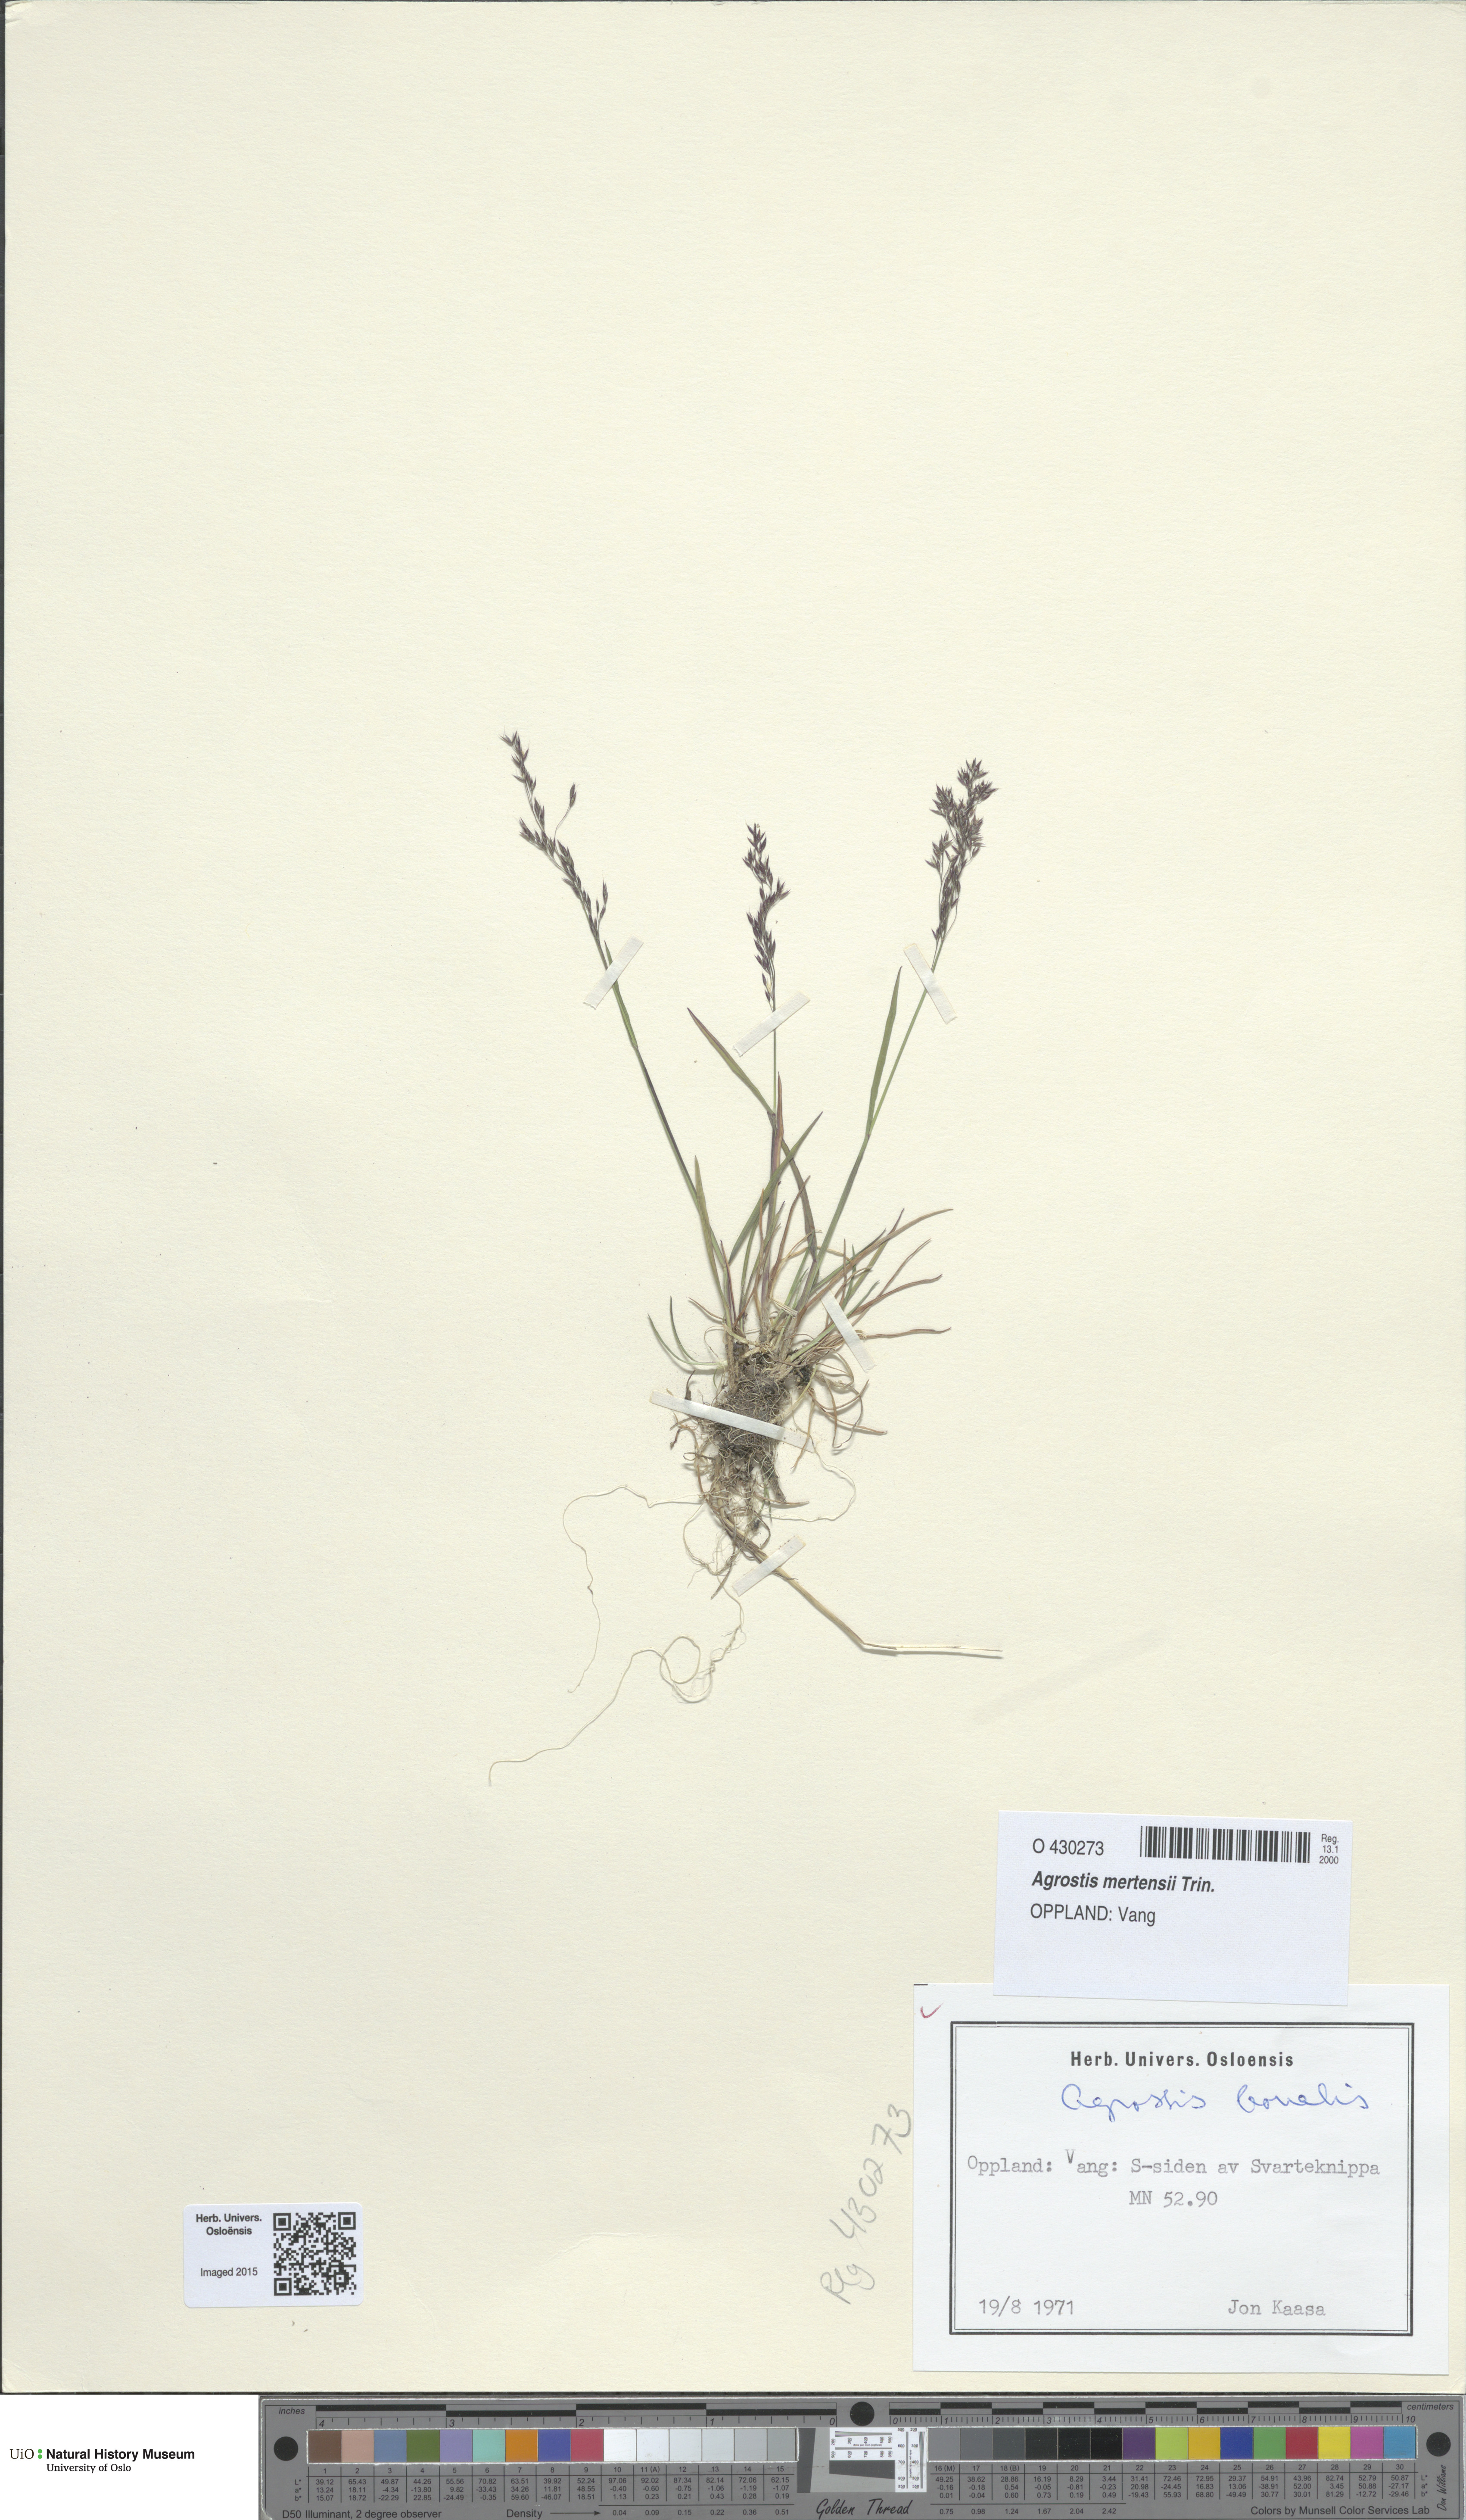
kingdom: Plantae
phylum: Tracheophyta
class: Liliopsida
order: Poales
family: Poaceae
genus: Agrostis
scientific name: Agrostis mertensii
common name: Northern bent
